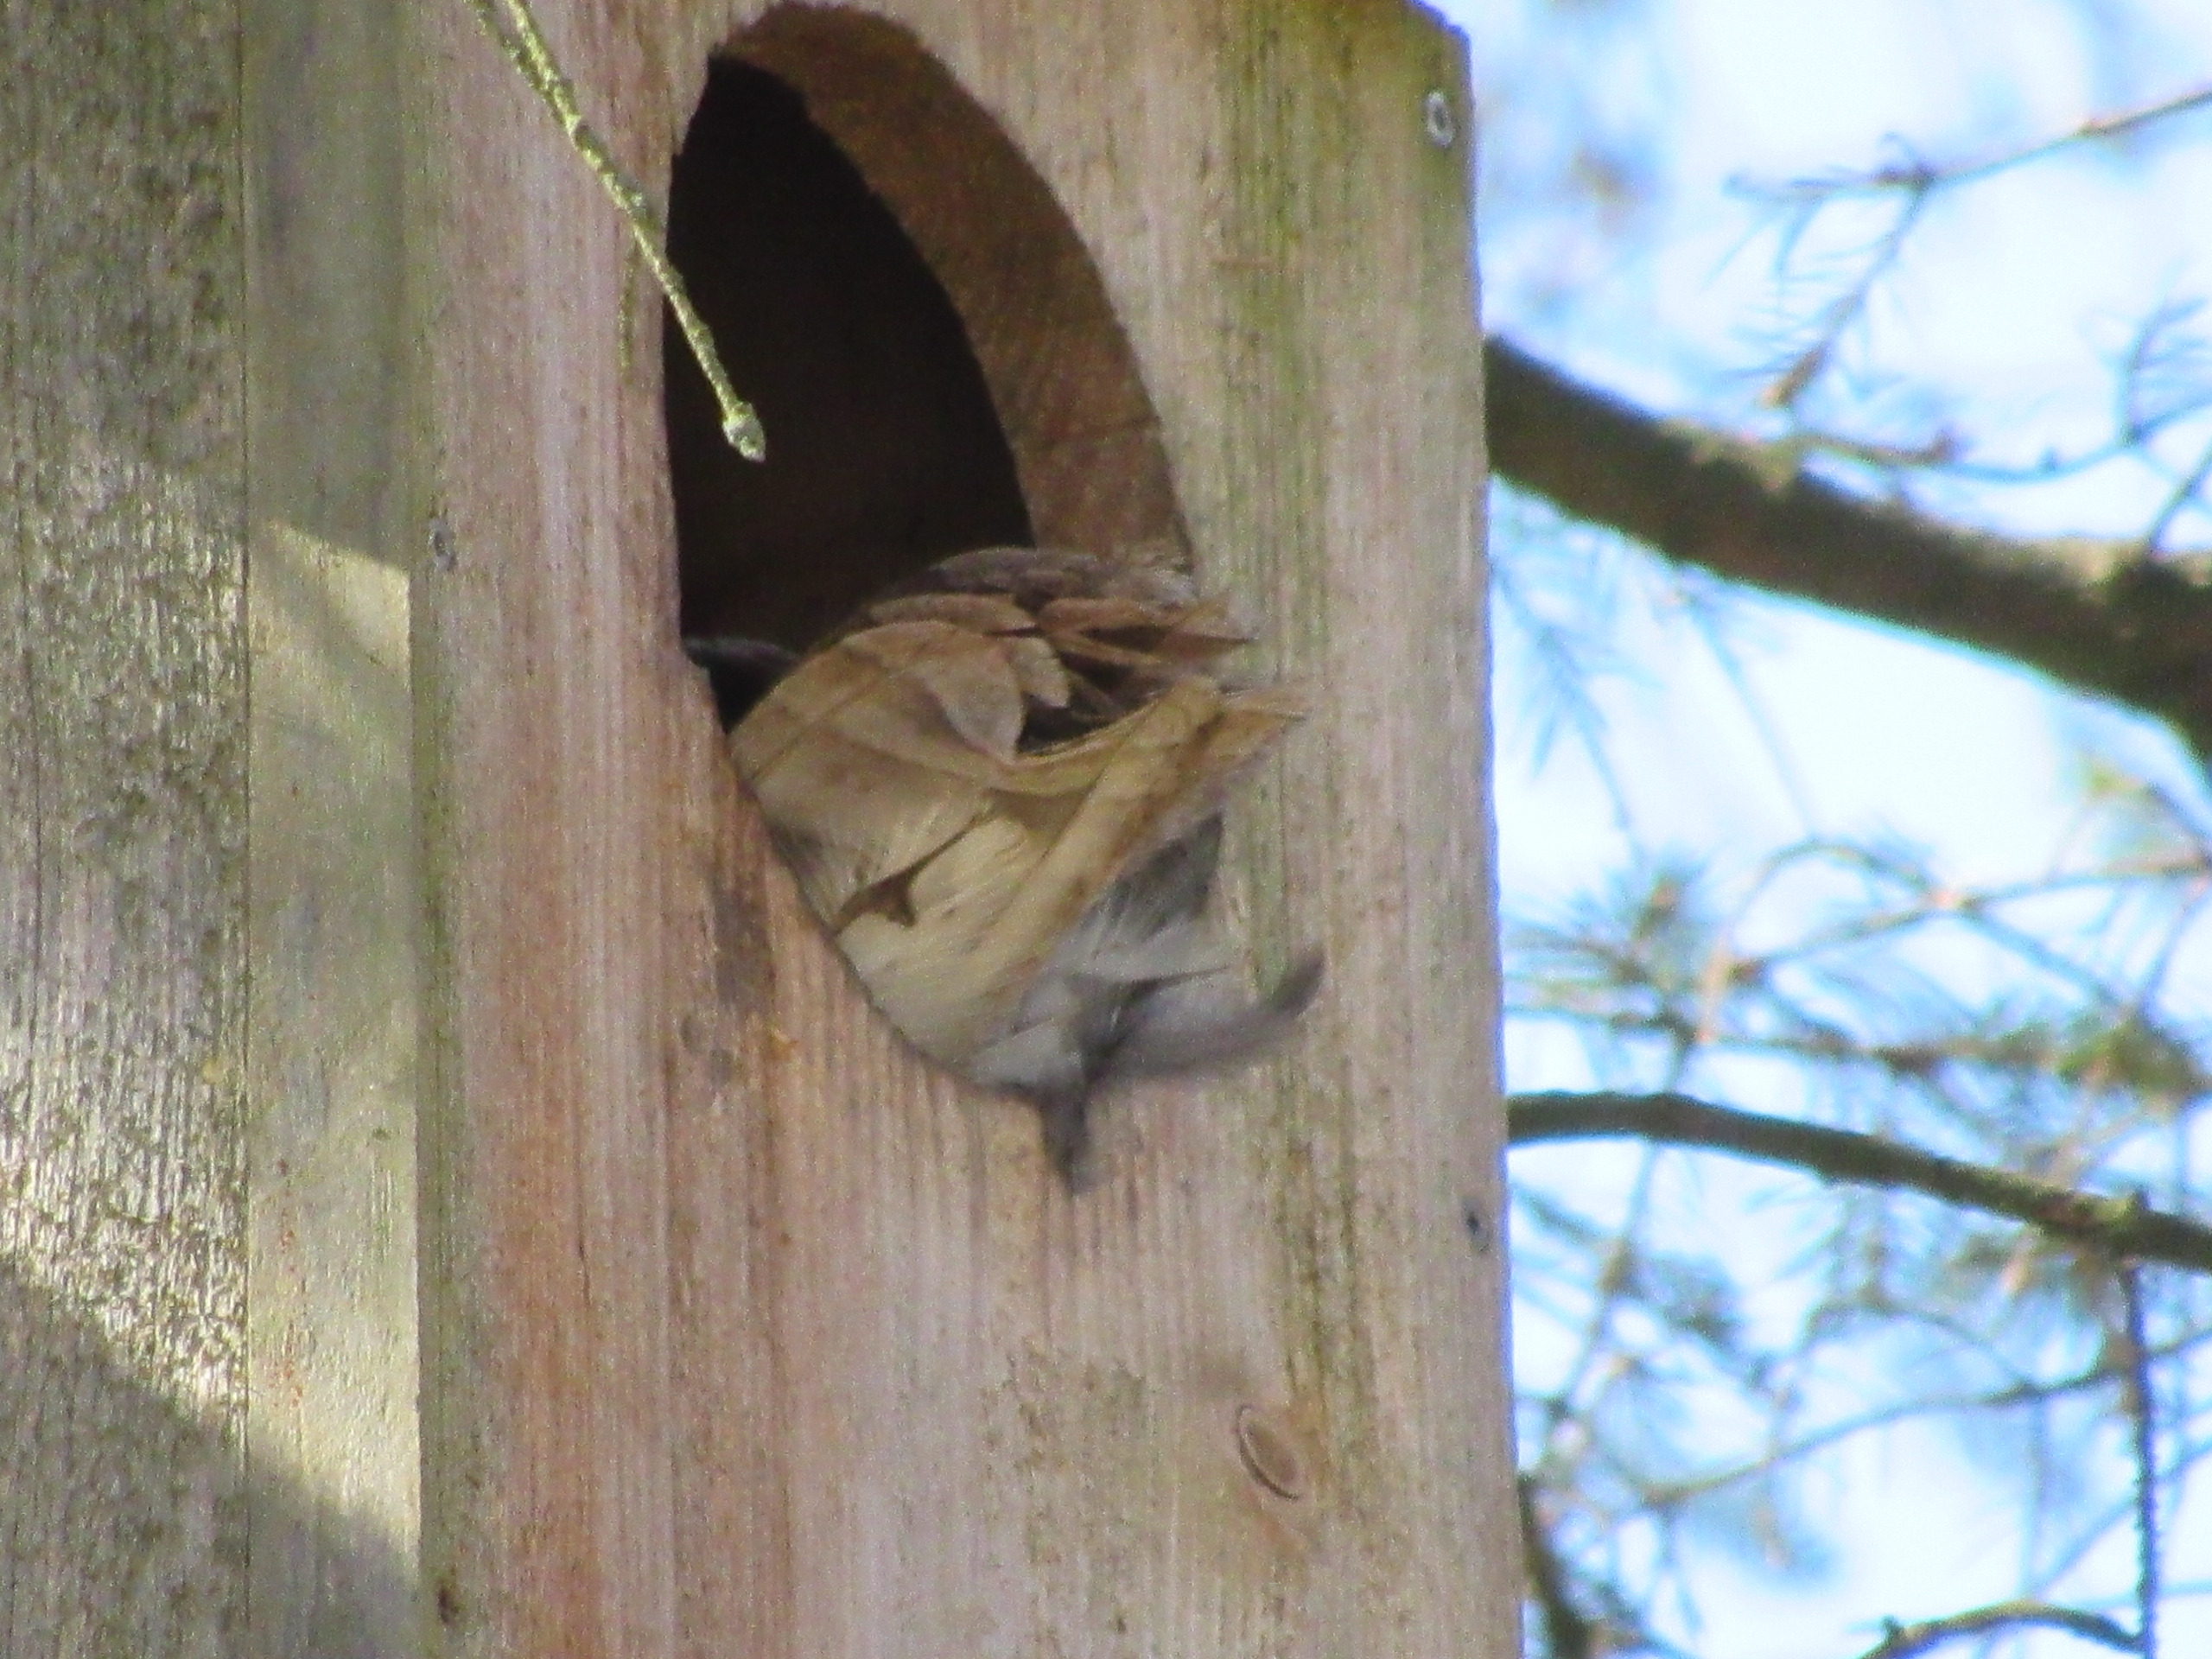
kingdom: Animalia
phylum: Chordata
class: Aves
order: Strigiformes
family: Strigidae
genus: Strix
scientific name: Strix aluco
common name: Natugle
